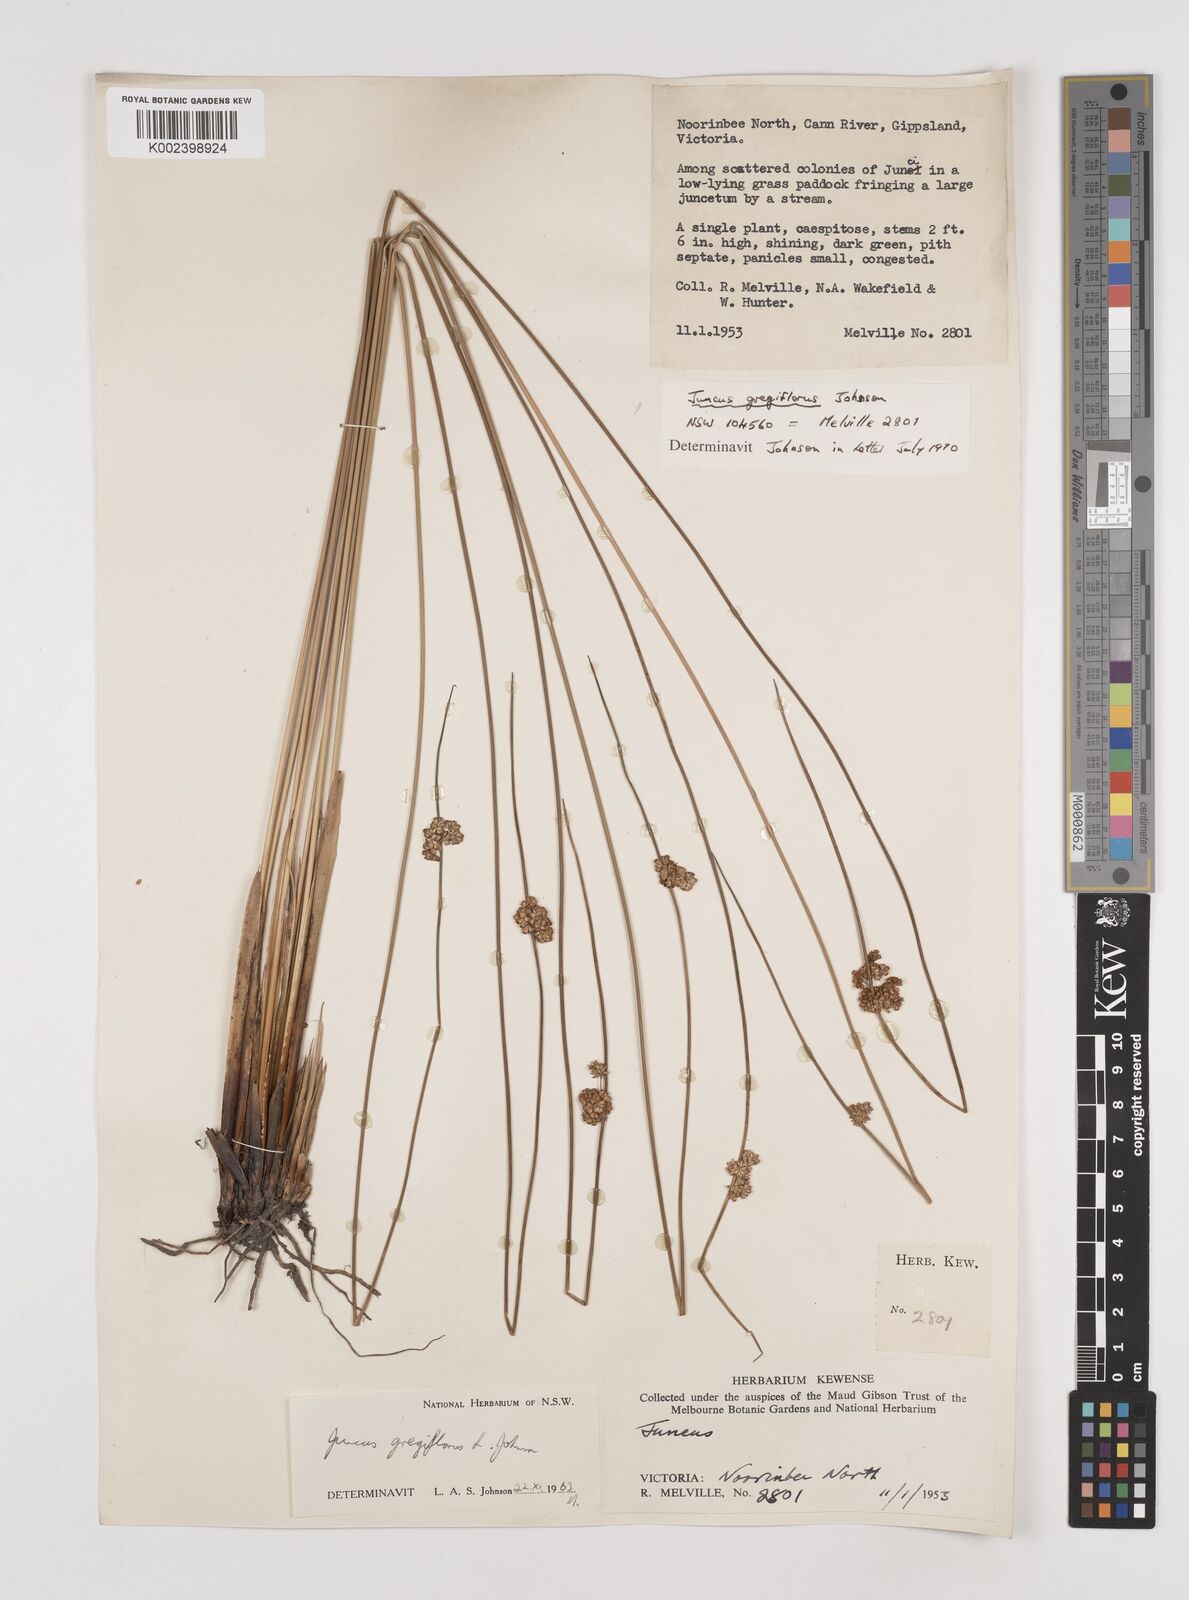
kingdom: Plantae
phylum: Tracheophyta
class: Liliopsida
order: Poales
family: Juncaceae
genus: Juncus
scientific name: Juncus gregiflorus
